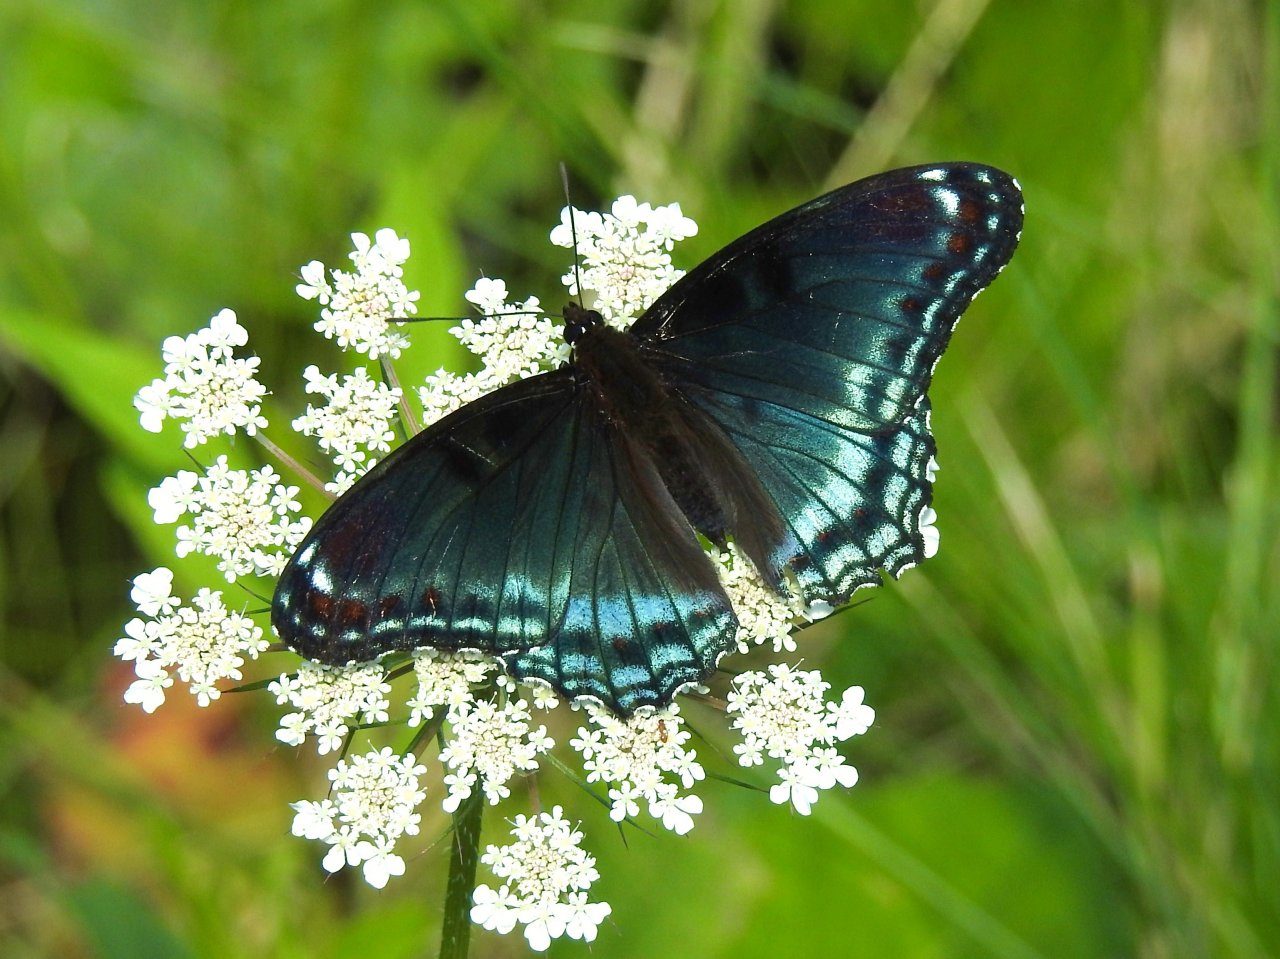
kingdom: Animalia
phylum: Arthropoda
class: Insecta
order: Lepidoptera
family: Nymphalidae
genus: Limenitis
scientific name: Limenitis astyanax
